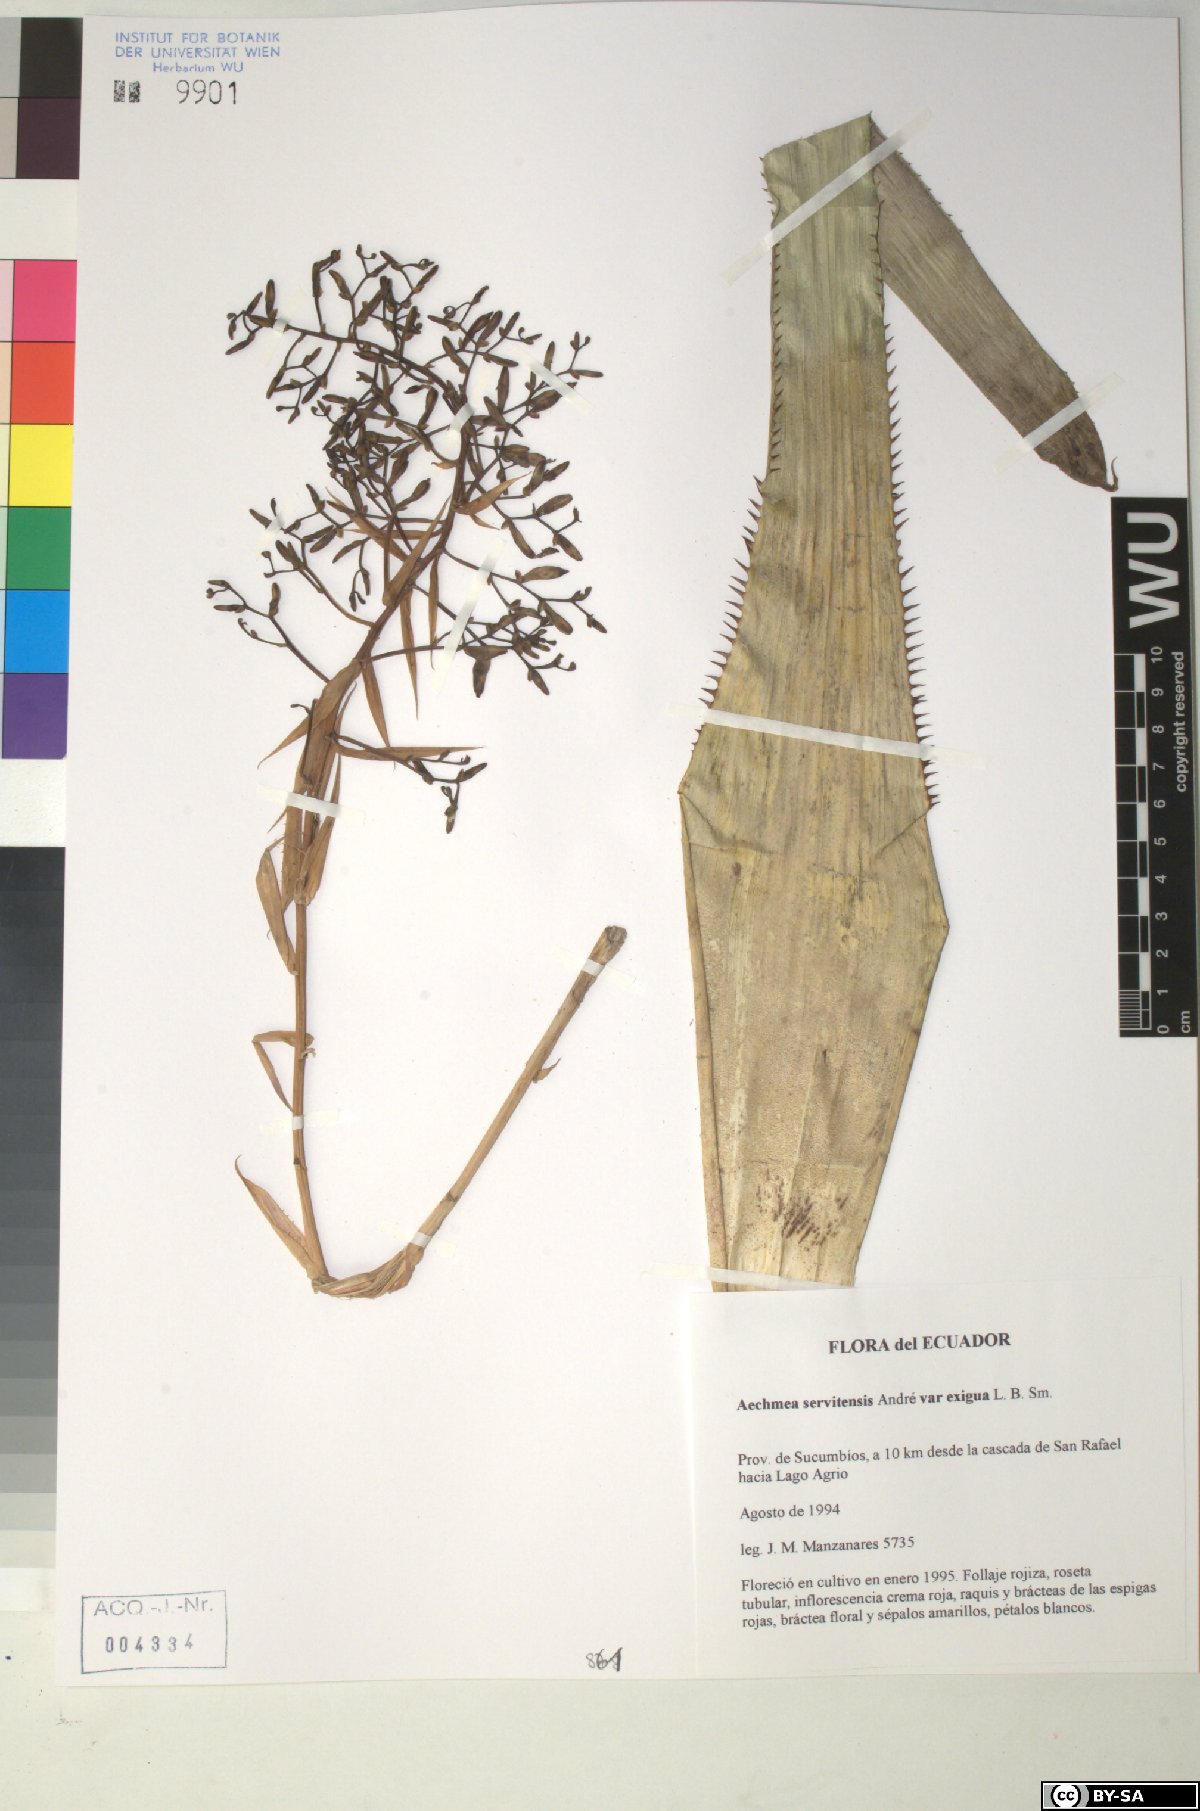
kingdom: Plantae
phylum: Tracheophyta
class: Liliopsida
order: Poales
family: Bromeliaceae
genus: Aechmea
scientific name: Aechmea servitensis
